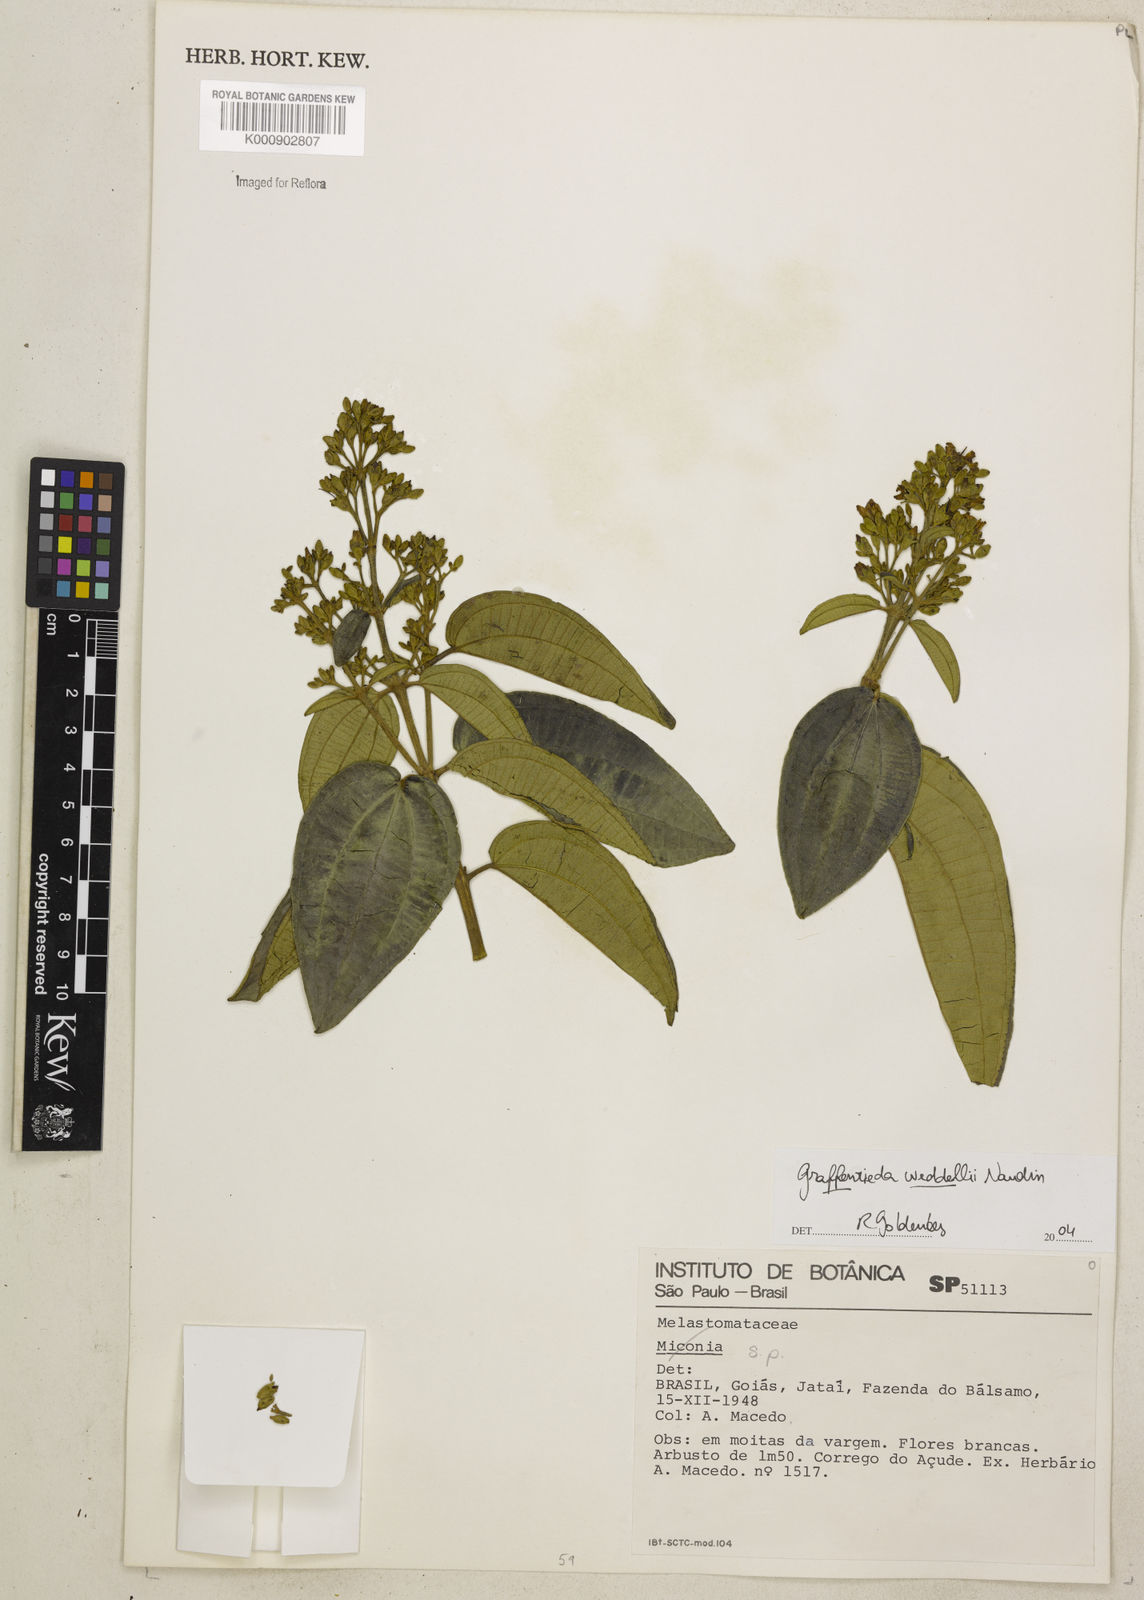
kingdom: Plantae
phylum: Tracheophyta
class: Magnoliopsida
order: Myrtales
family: Melastomataceae
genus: Graffenrieda
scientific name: Graffenrieda weddellii
